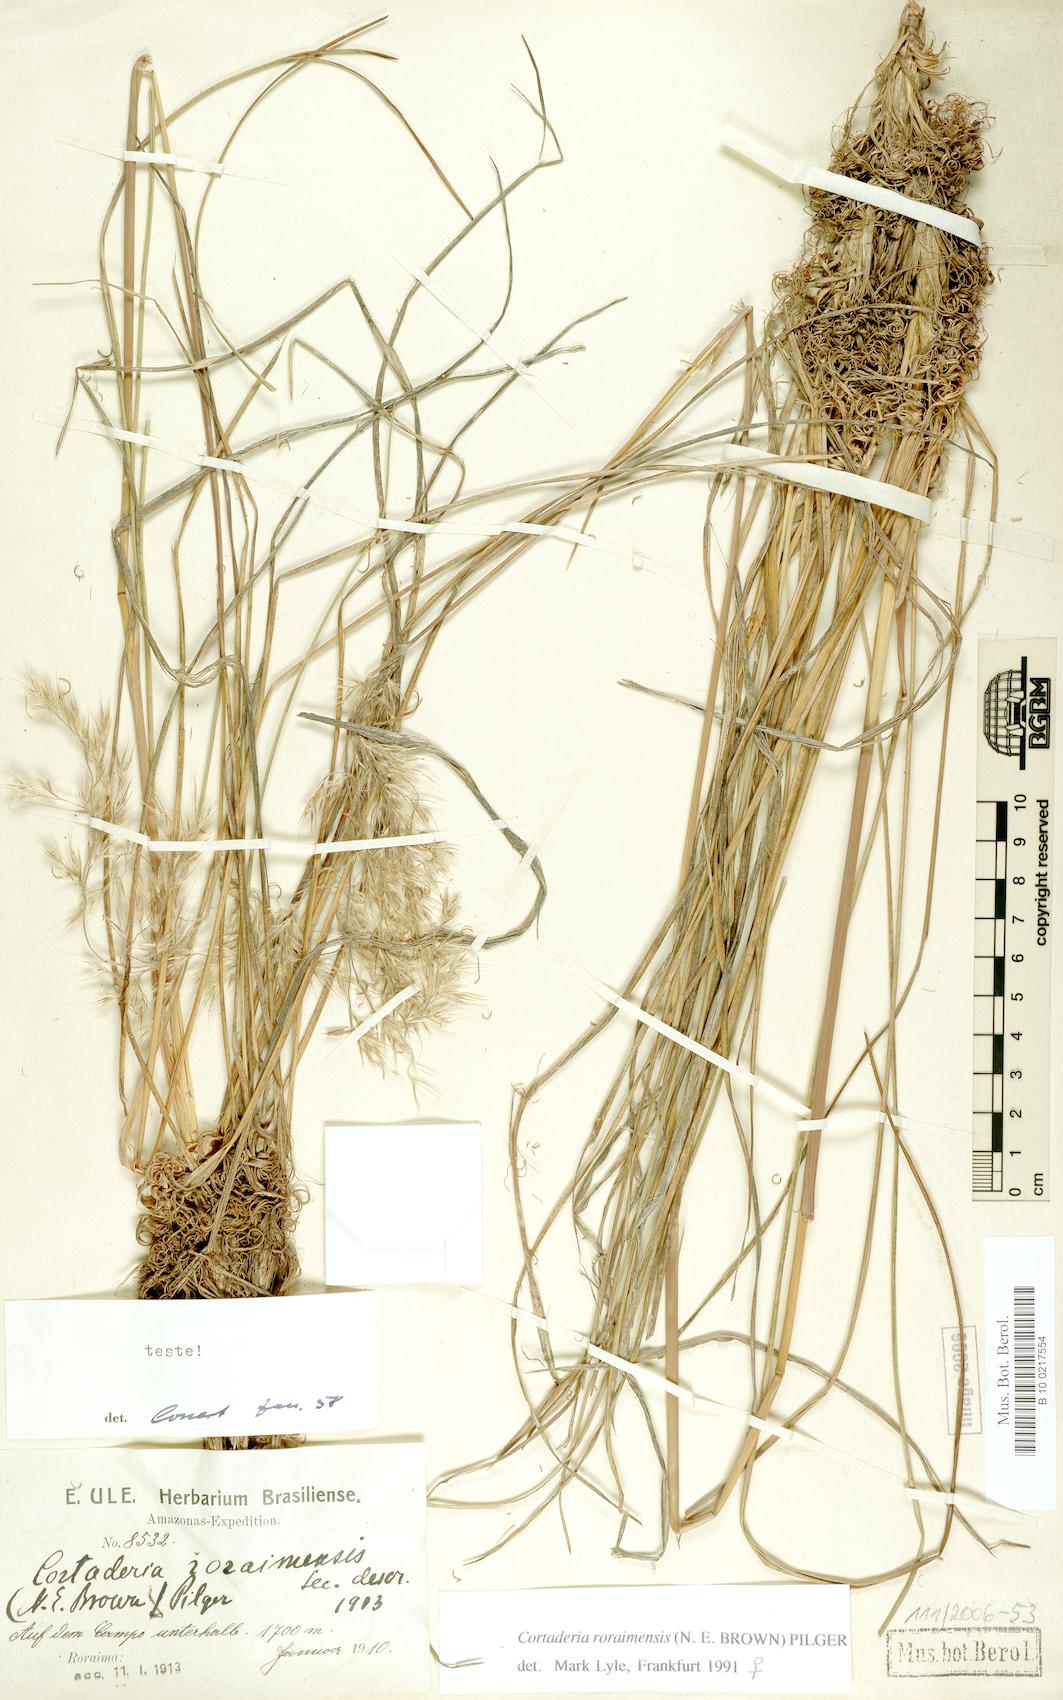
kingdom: Plantae
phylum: Tracheophyta
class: Liliopsida
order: Poales
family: Poaceae
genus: Cortaderia
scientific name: Cortaderia roraimensis
